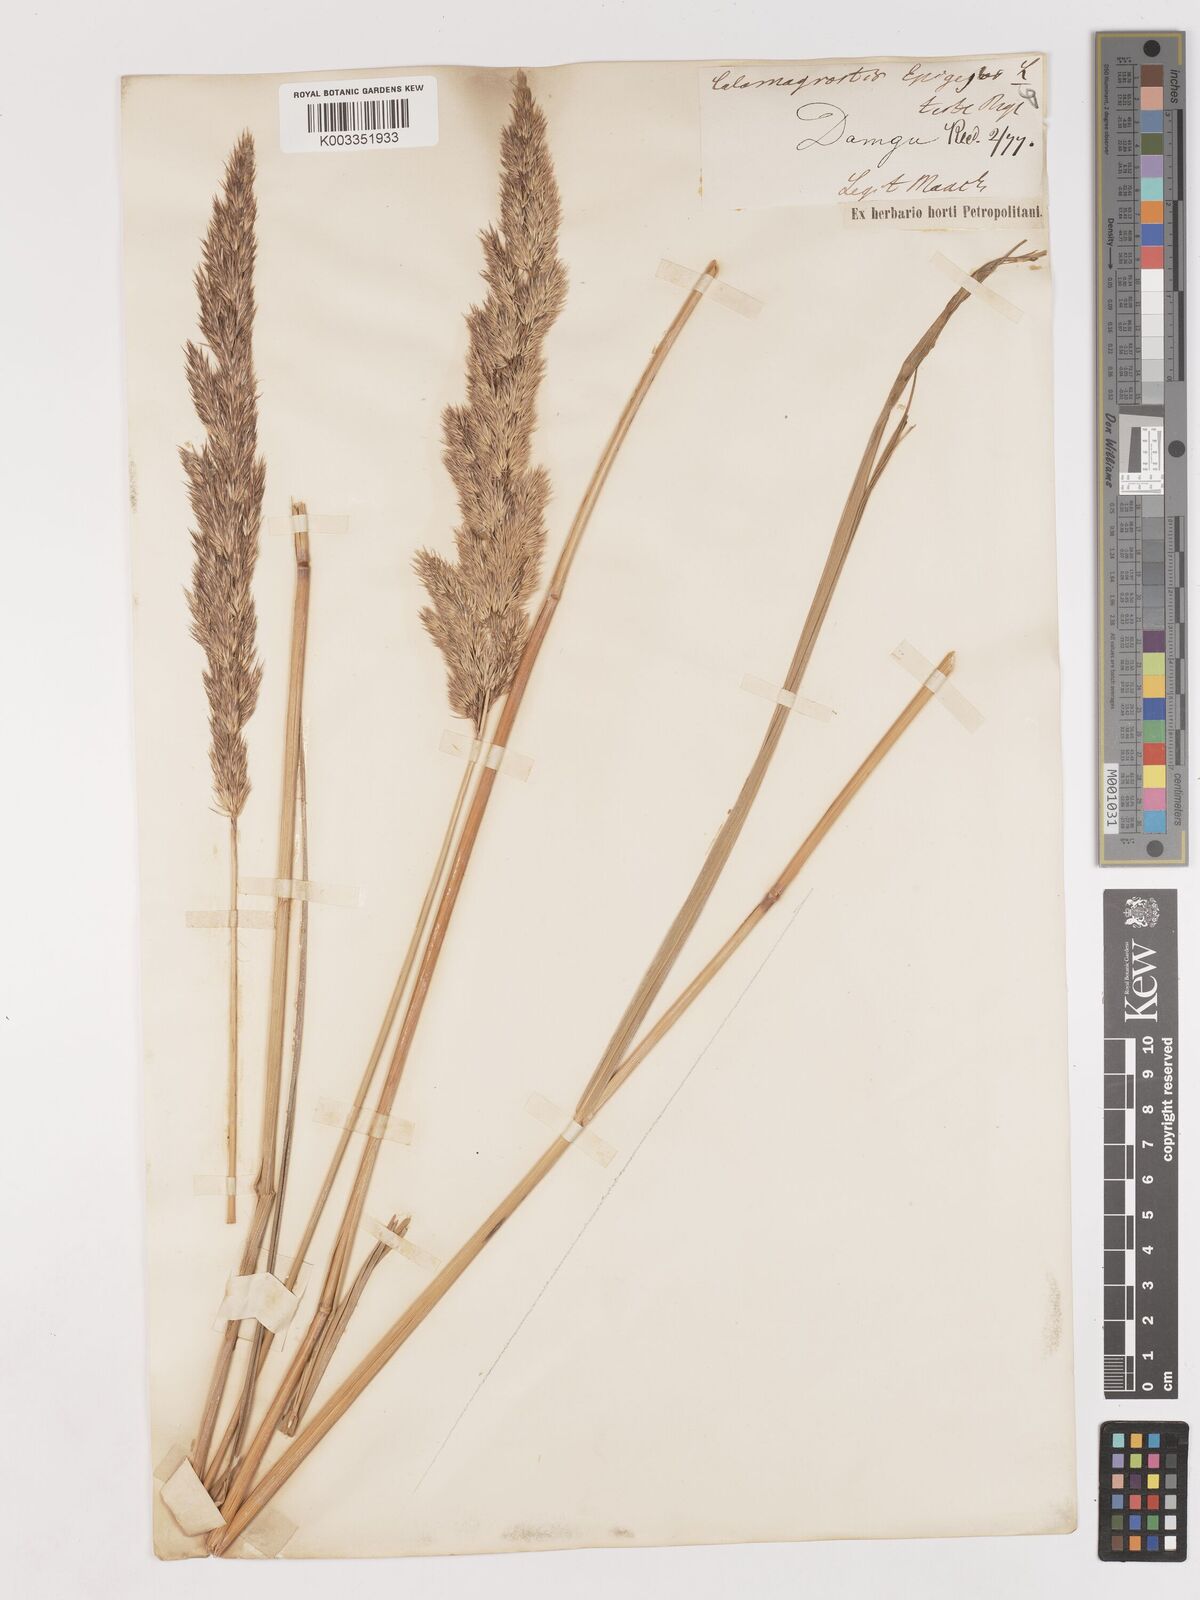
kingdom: Plantae
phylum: Tracheophyta
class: Liliopsida
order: Poales
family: Poaceae
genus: Calamagrostis
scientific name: Calamagrostis epigejos
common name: Wood small-reed
